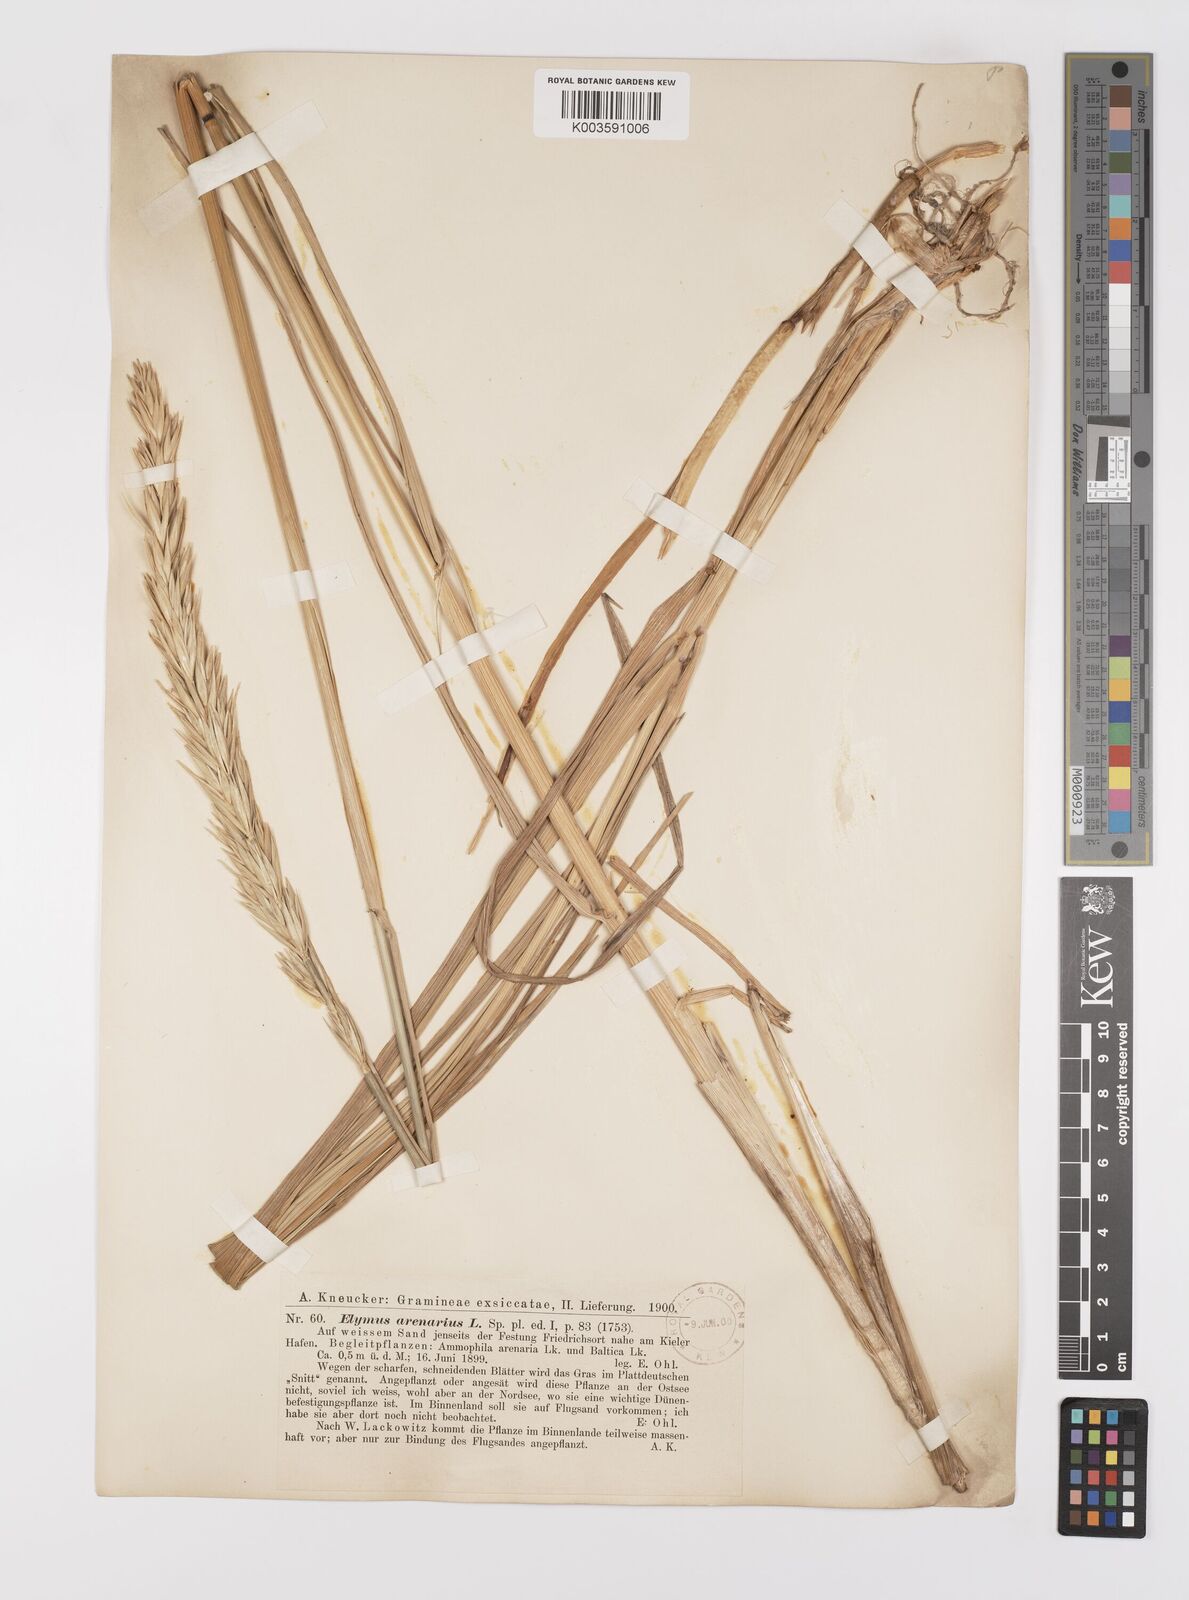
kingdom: Plantae
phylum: Tracheophyta
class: Liliopsida
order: Poales
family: Poaceae
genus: Leymus
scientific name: Leymus arenarius
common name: Lyme-grass
